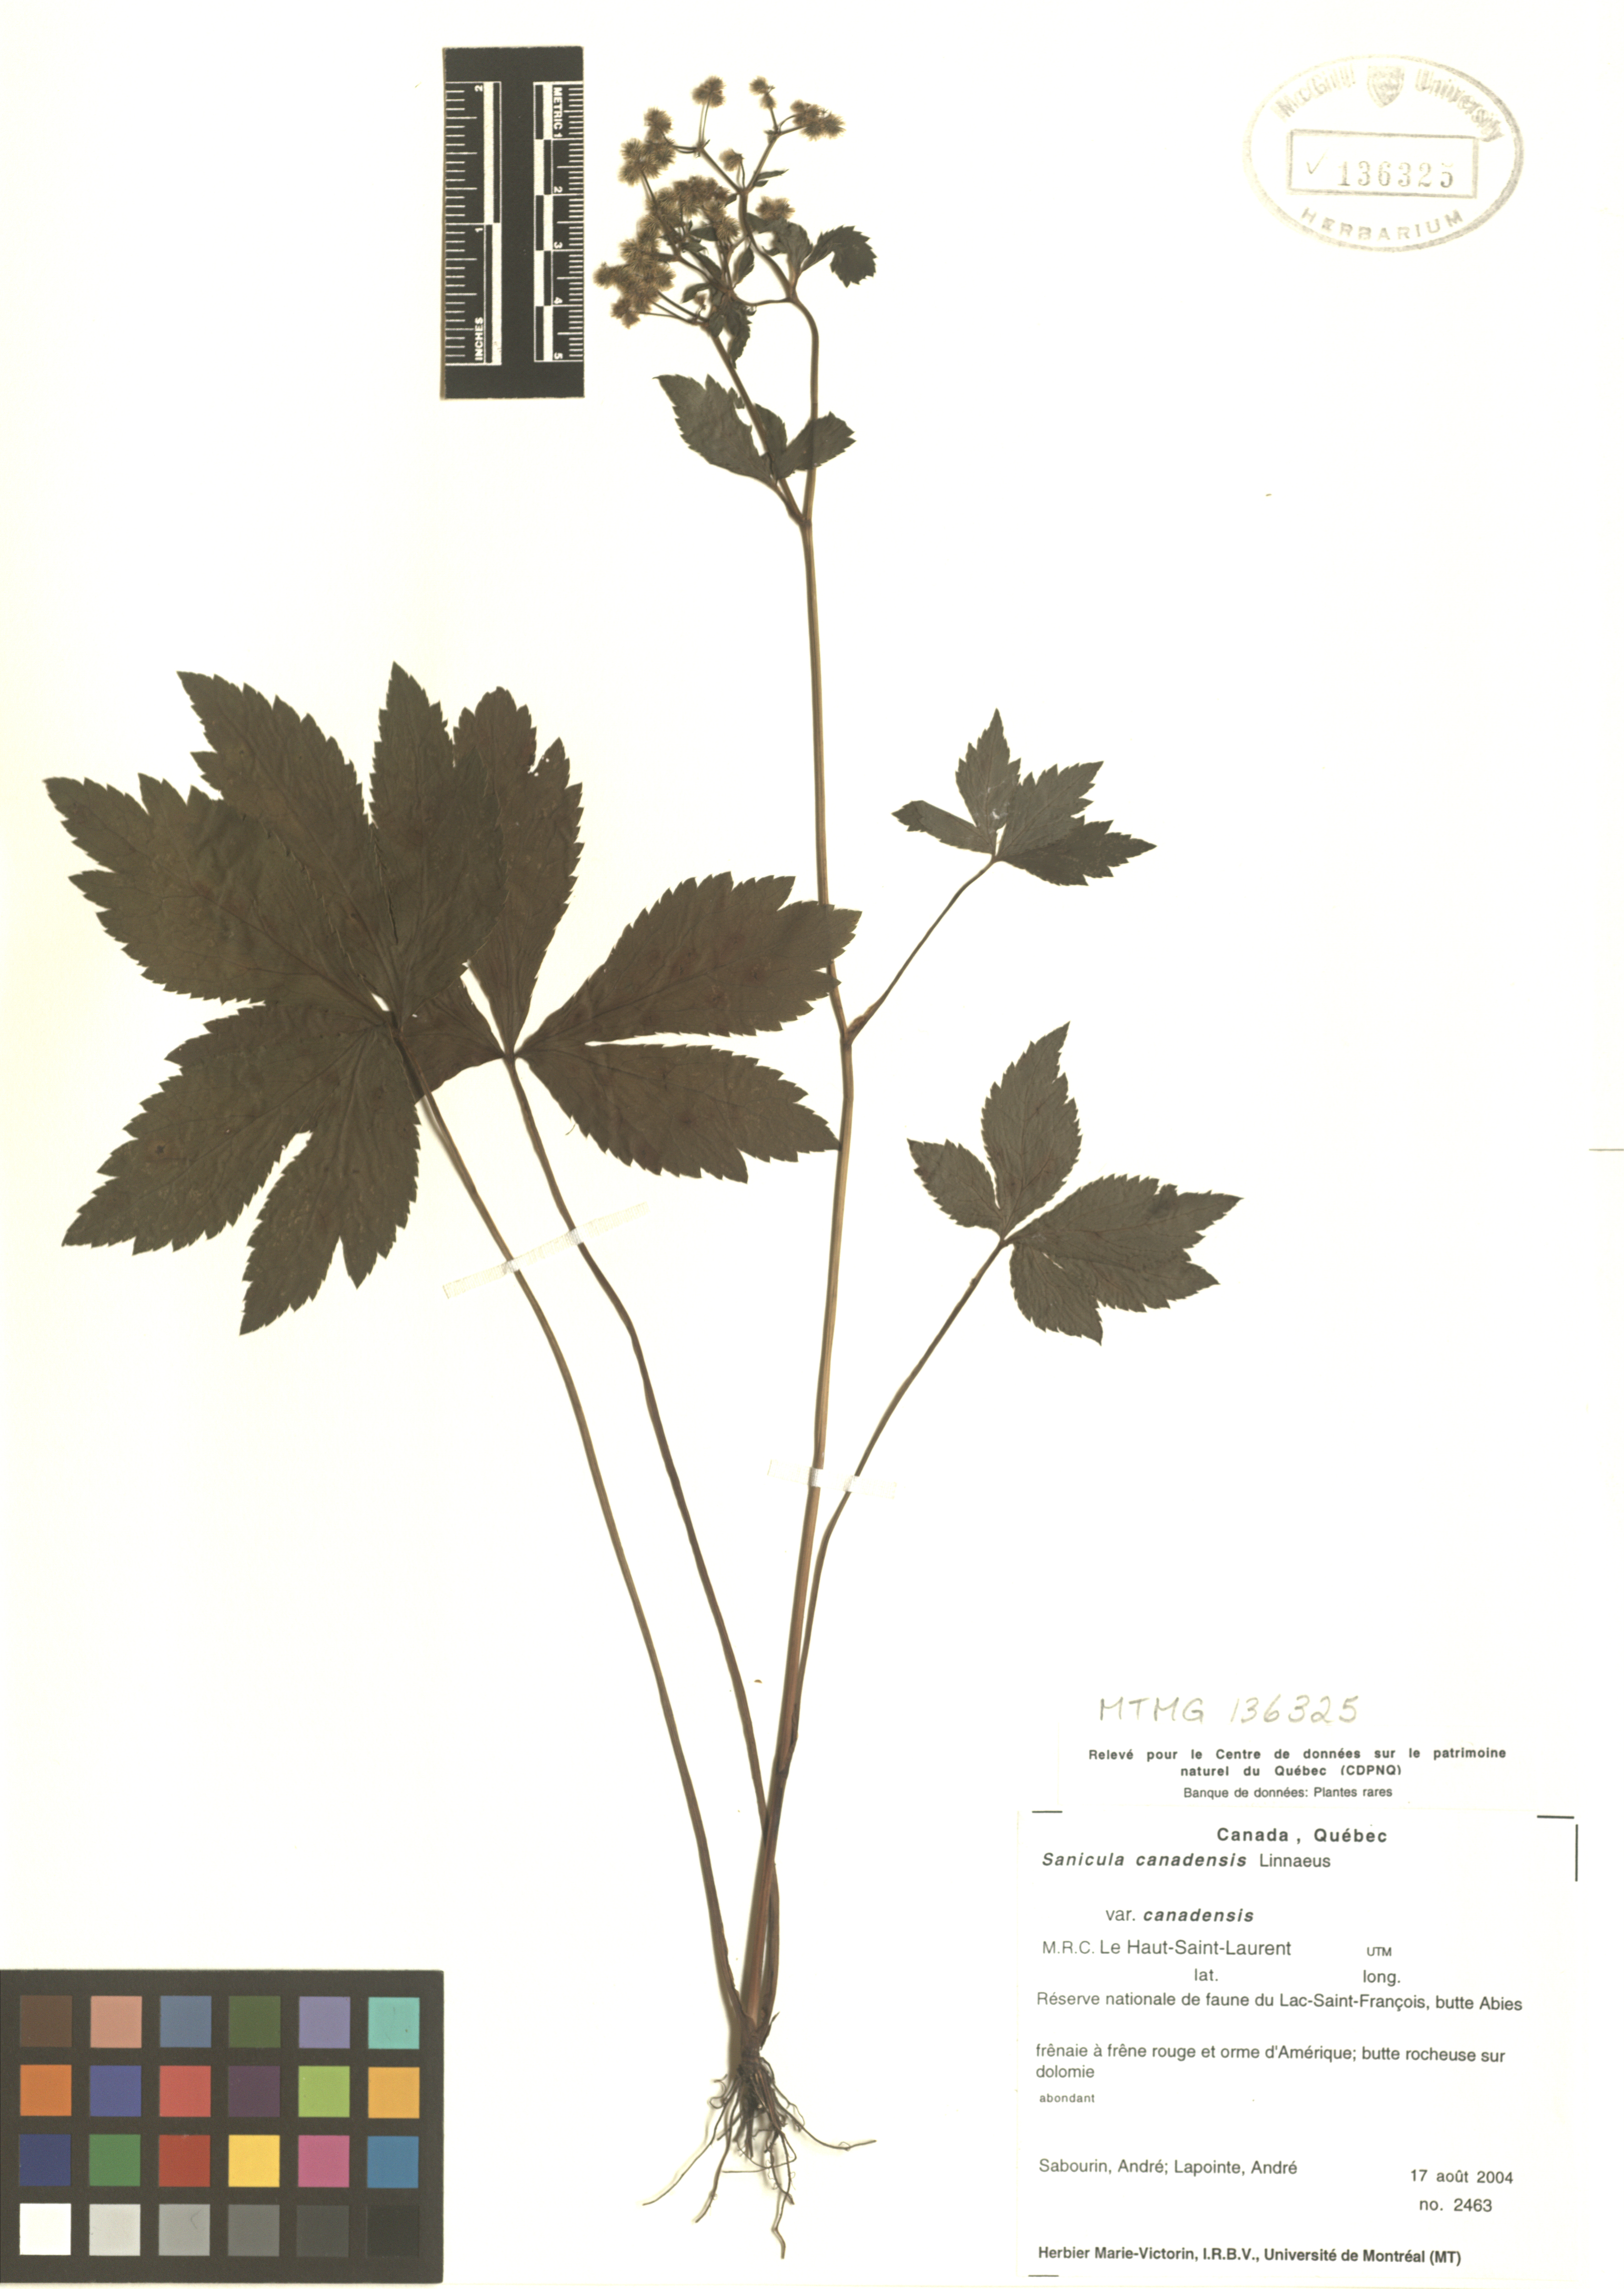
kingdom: Plantae
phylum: Tracheophyta
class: Magnoliopsida
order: Apiales
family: Apiaceae
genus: Sanicula
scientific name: Sanicula canadensis
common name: Canada sanicle
